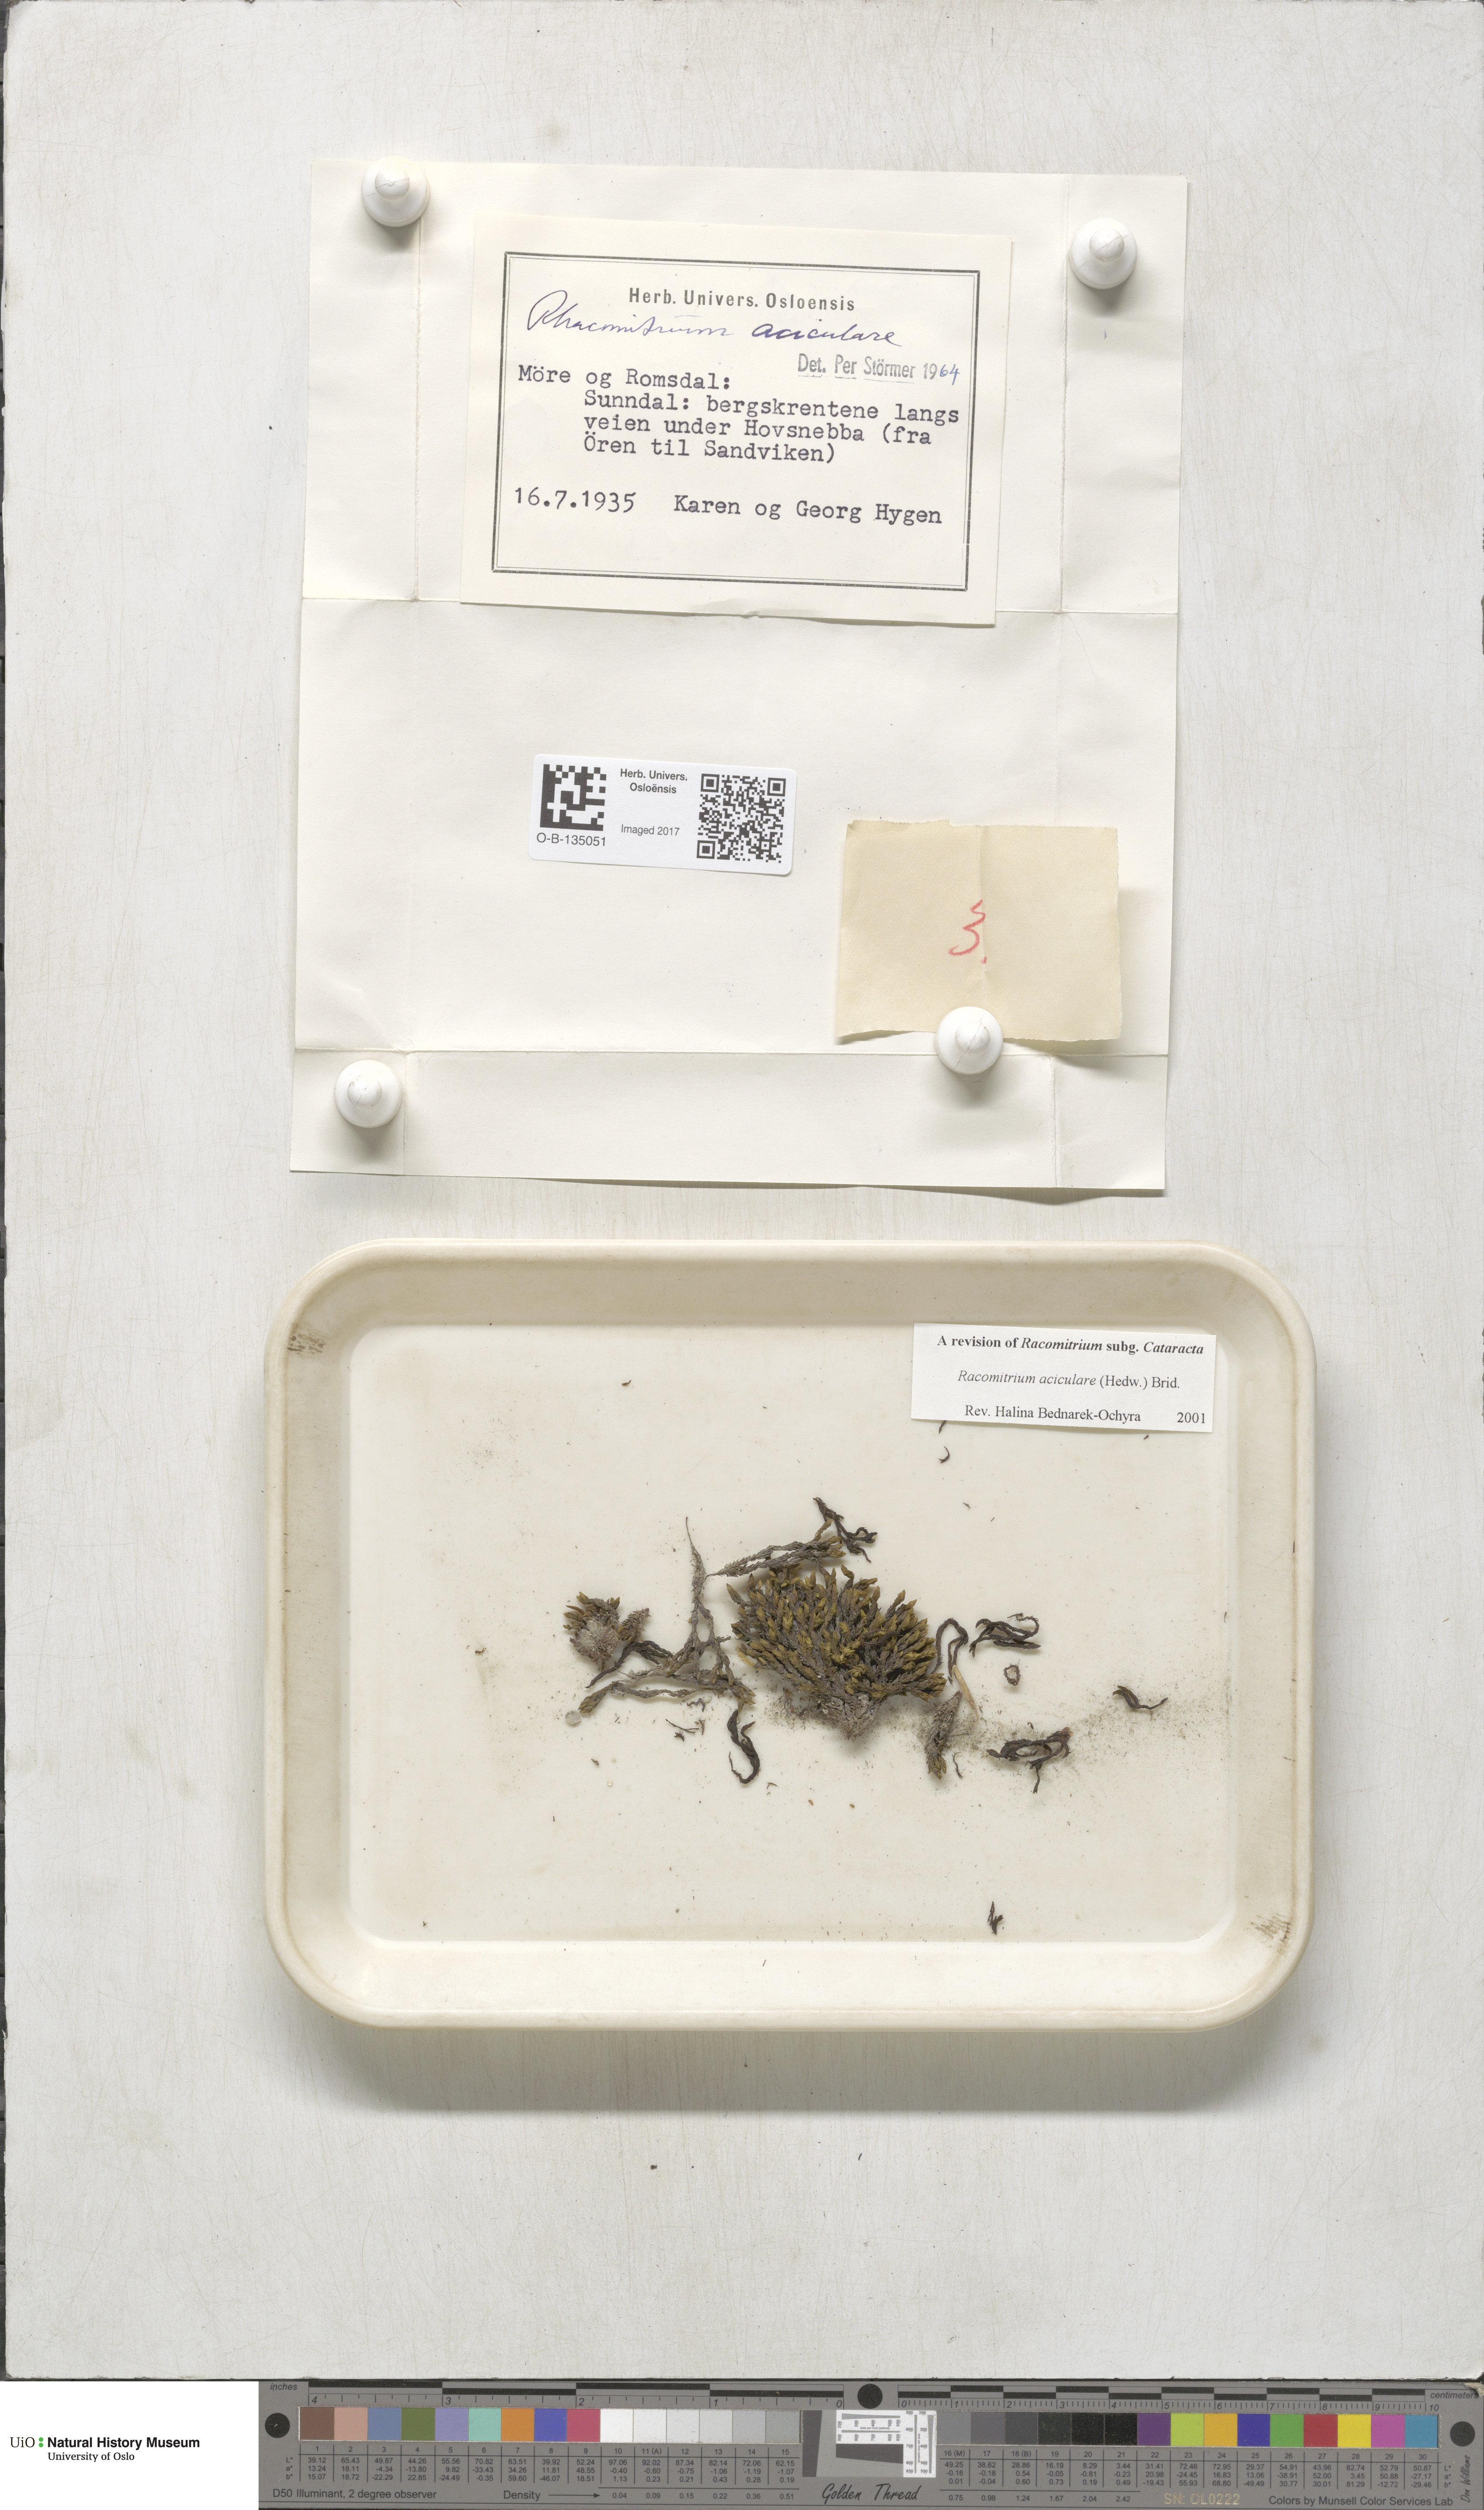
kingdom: Plantae
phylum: Bryophyta
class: Bryopsida
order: Grimmiales
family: Grimmiaceae
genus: Codriophorus
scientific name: Codriophorus acicularis
